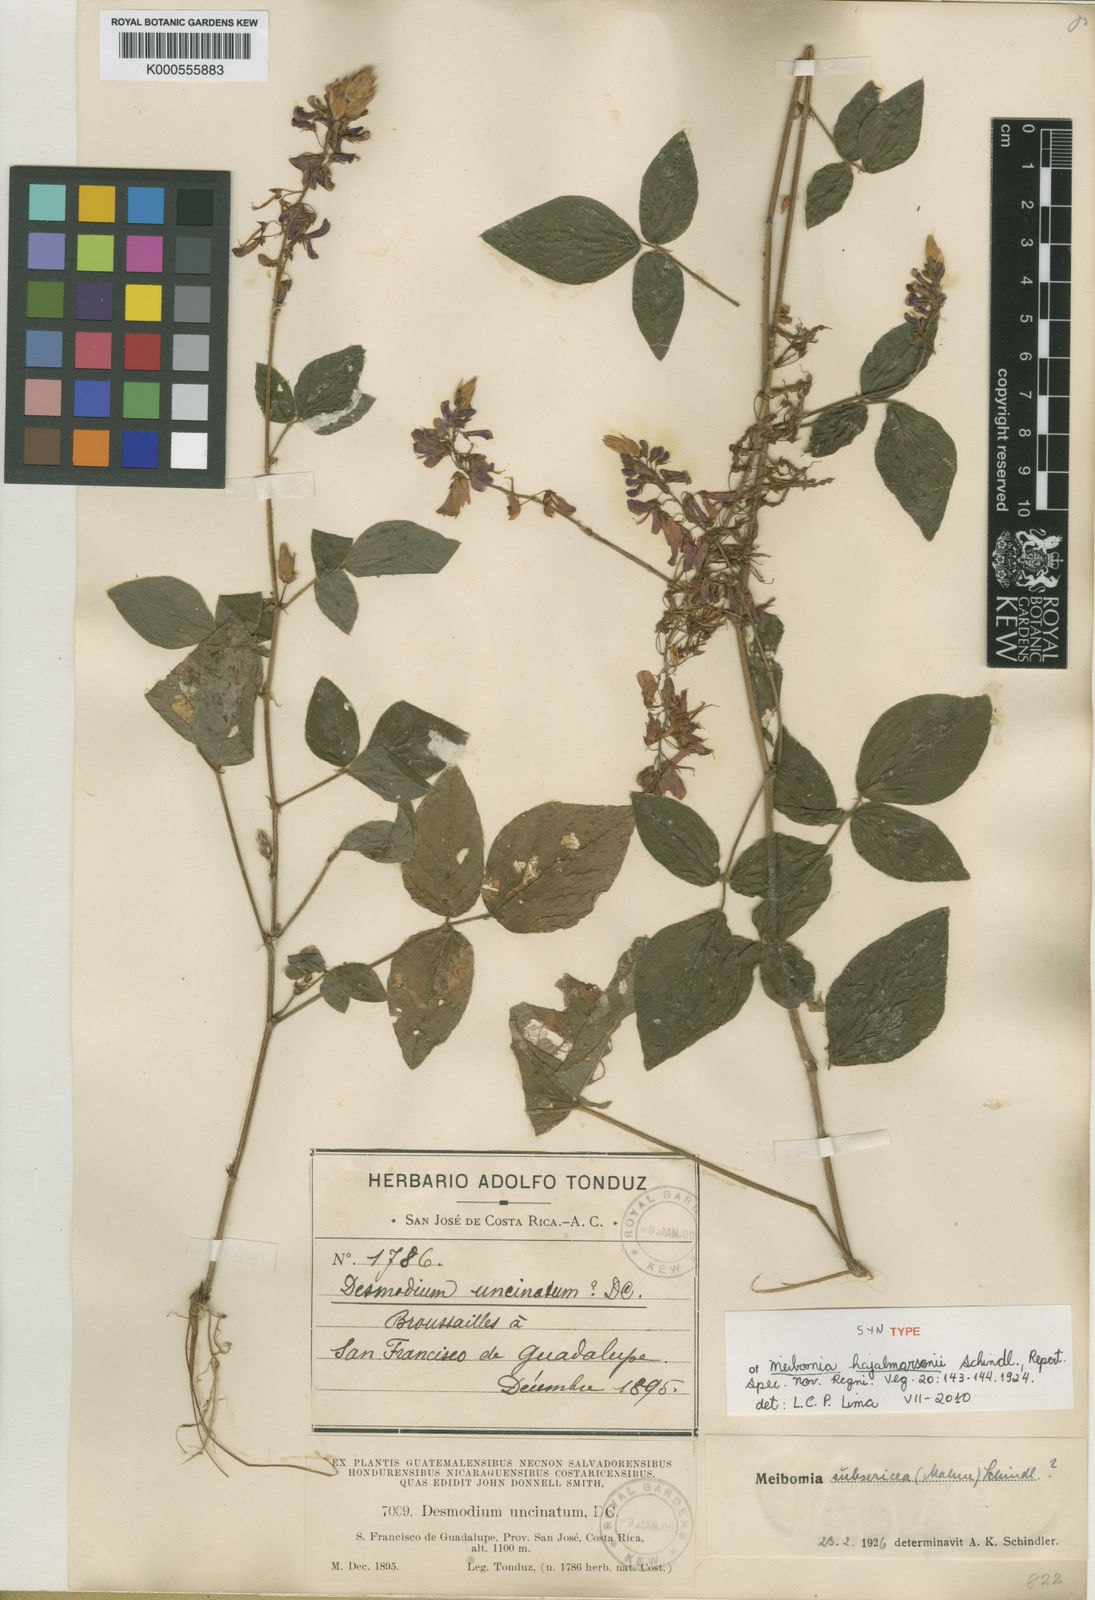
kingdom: Plantae
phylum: Tracheophyta
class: Magnoliopsida
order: Fabales
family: Fabaceae
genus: Desmodium
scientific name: Desmodium uncinatum
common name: Silverleaf desmodium
